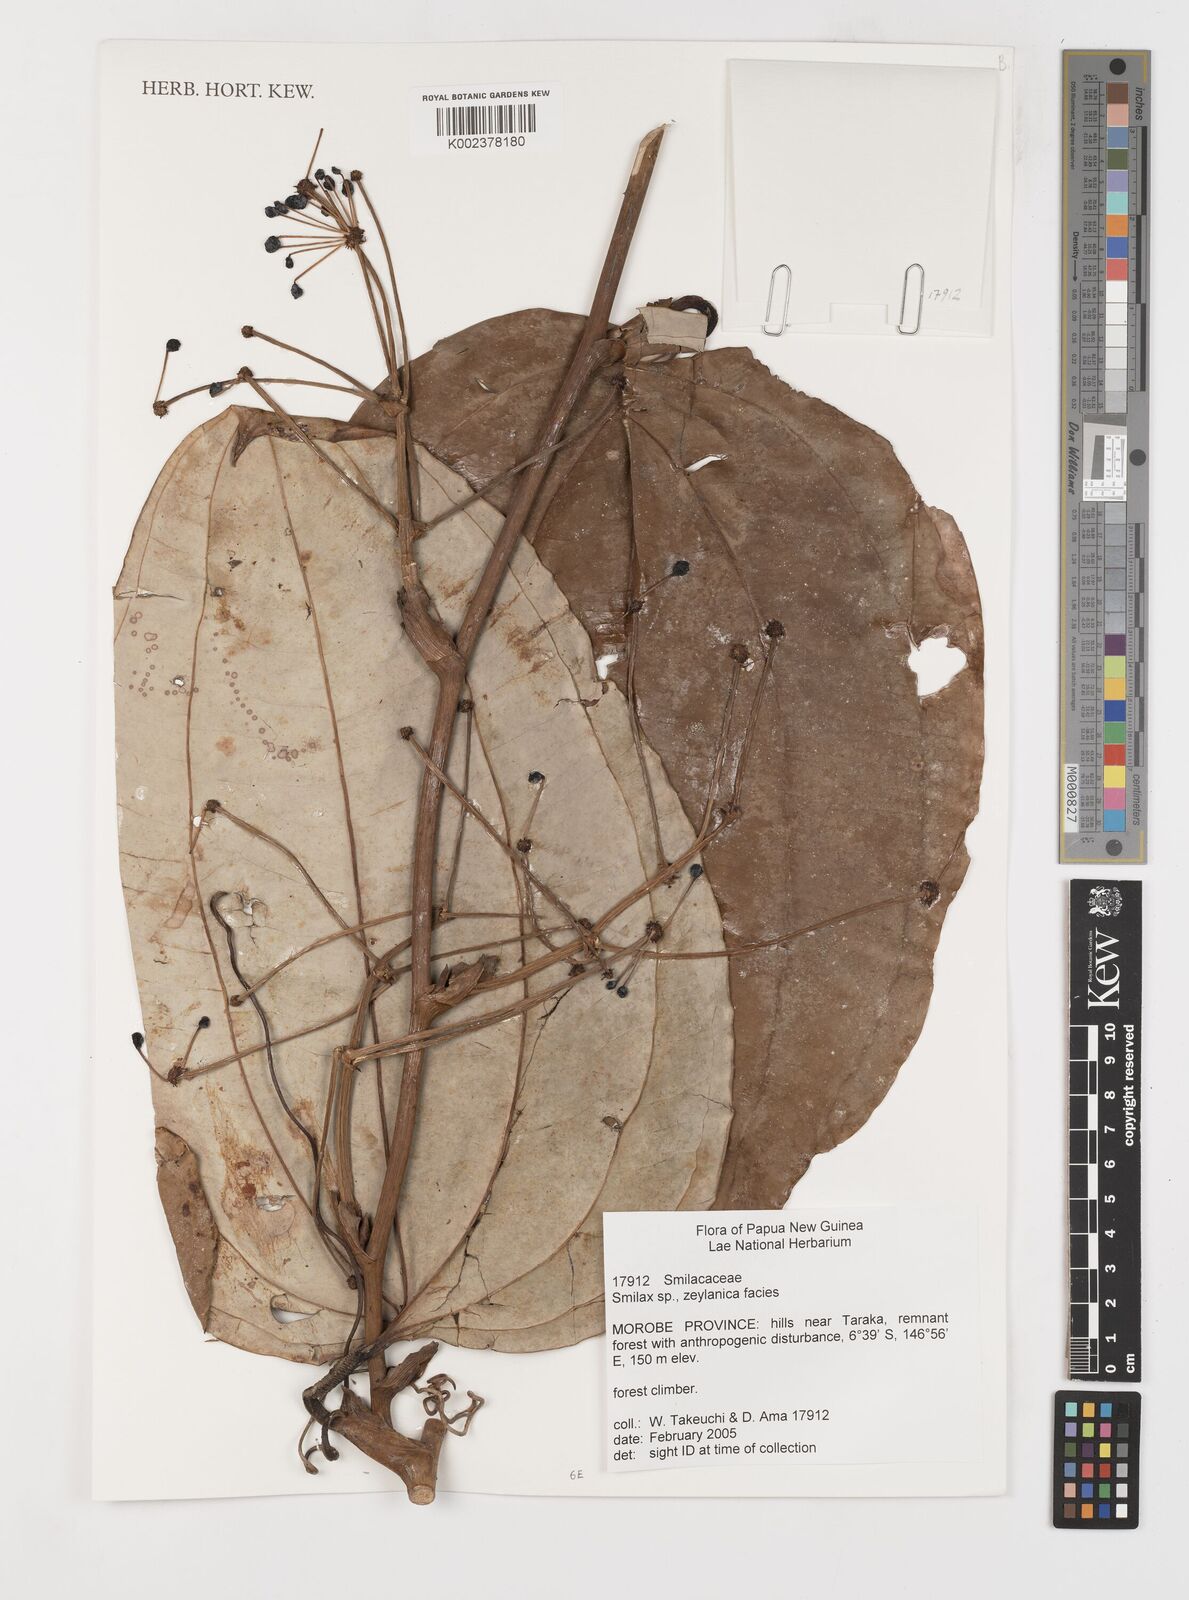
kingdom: Plantae
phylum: Tracheophyta
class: Liliopsida
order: Liliales
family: Smilacaceae
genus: Smilax
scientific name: Smilax zeylanica
